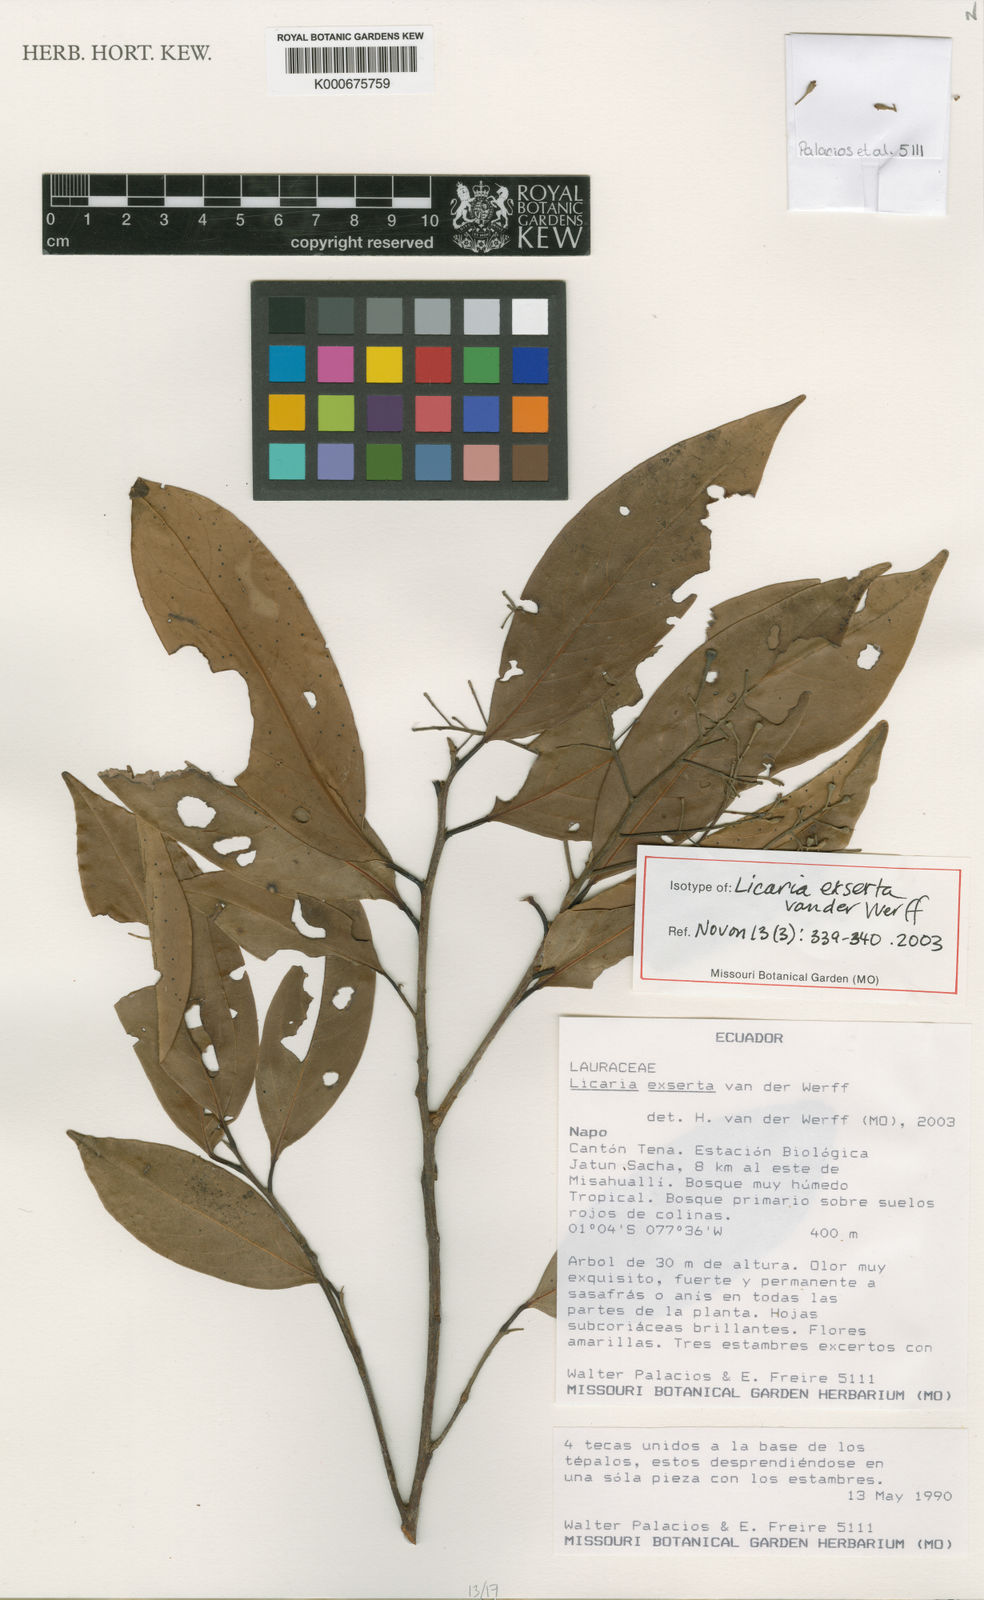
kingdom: Plantae
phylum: Tracheophyta
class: Magnoliopsida
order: Laurales
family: Lauraceae
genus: Licaria
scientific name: Licaria exserta
